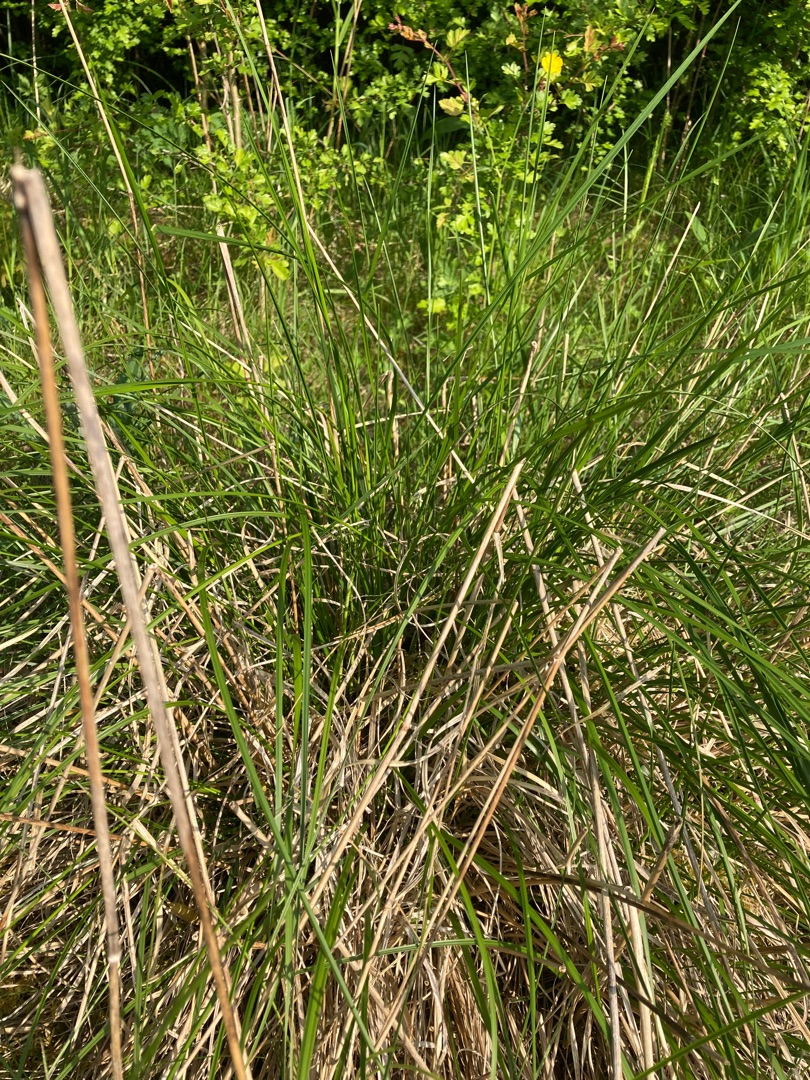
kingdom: Plantae
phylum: Tracheophyta
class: Liliopsida
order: Poales
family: Poaceae
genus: Deschampsia
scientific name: Deschampsia cespitosa
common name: Mose-bunke
